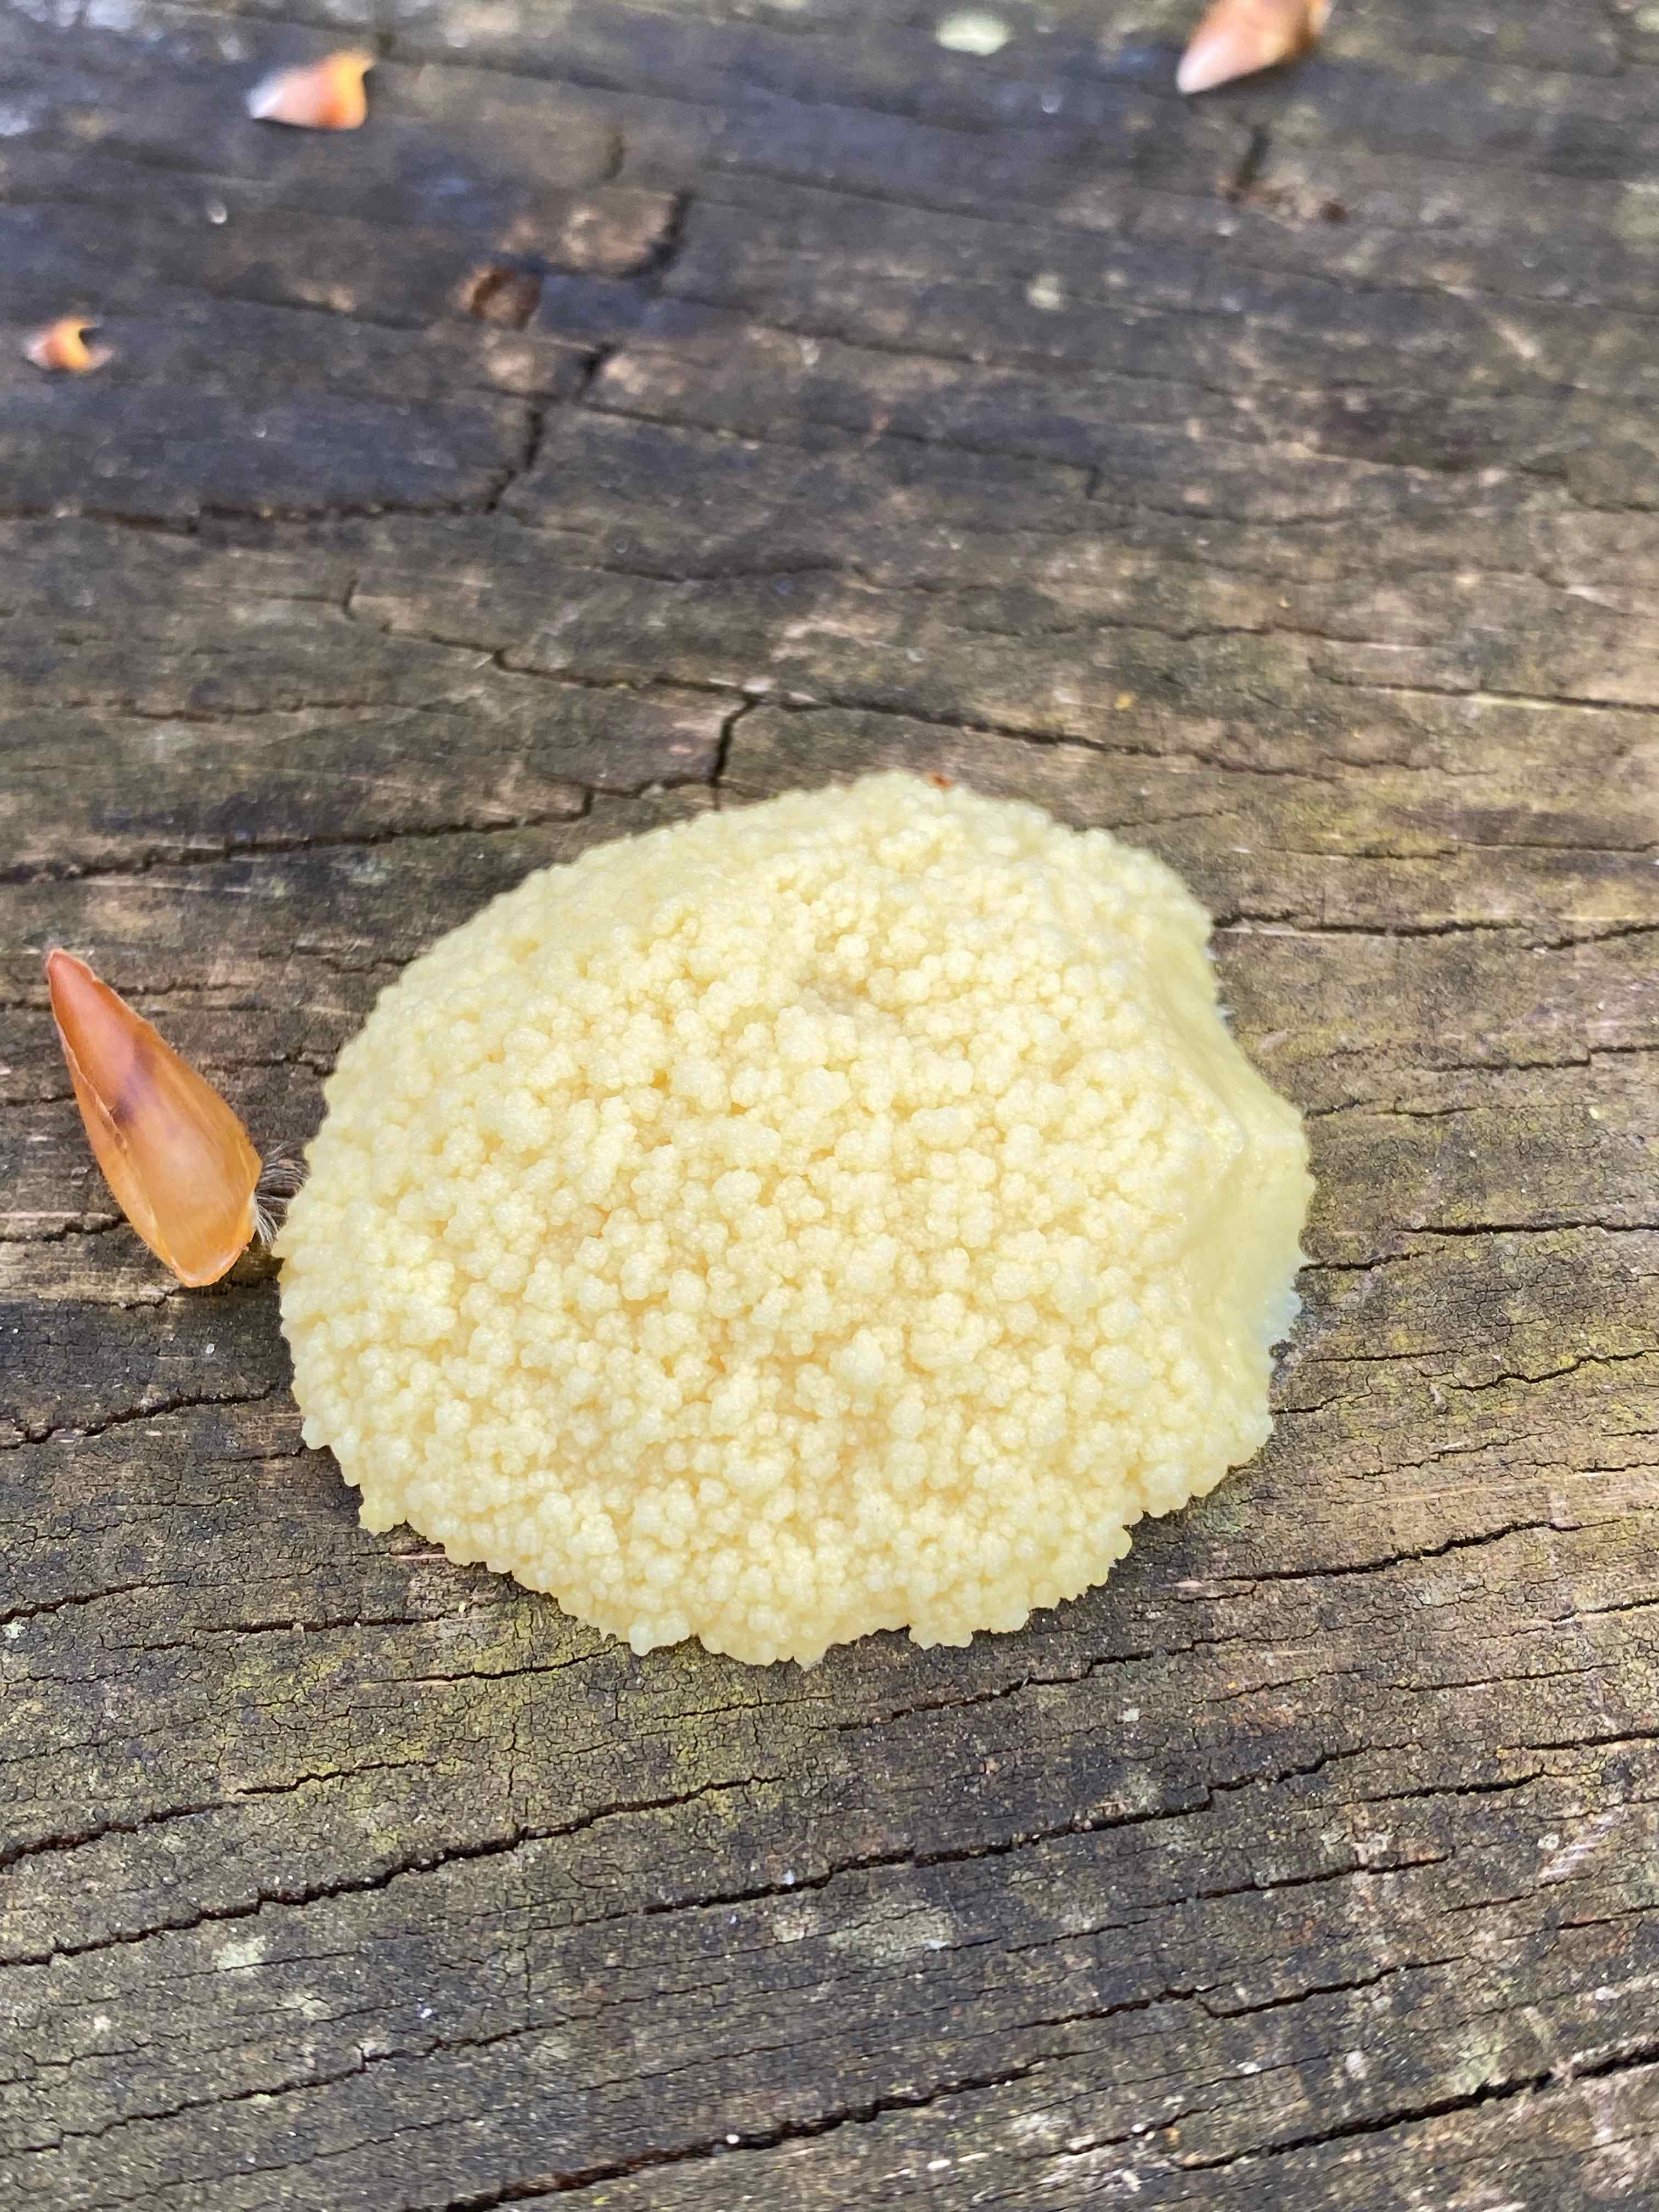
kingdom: Protozoa
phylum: Mycetozoa
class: Myxomycetes
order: Cribrariales
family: Tubiferaceae
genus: Reticularia
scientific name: Reticularia
